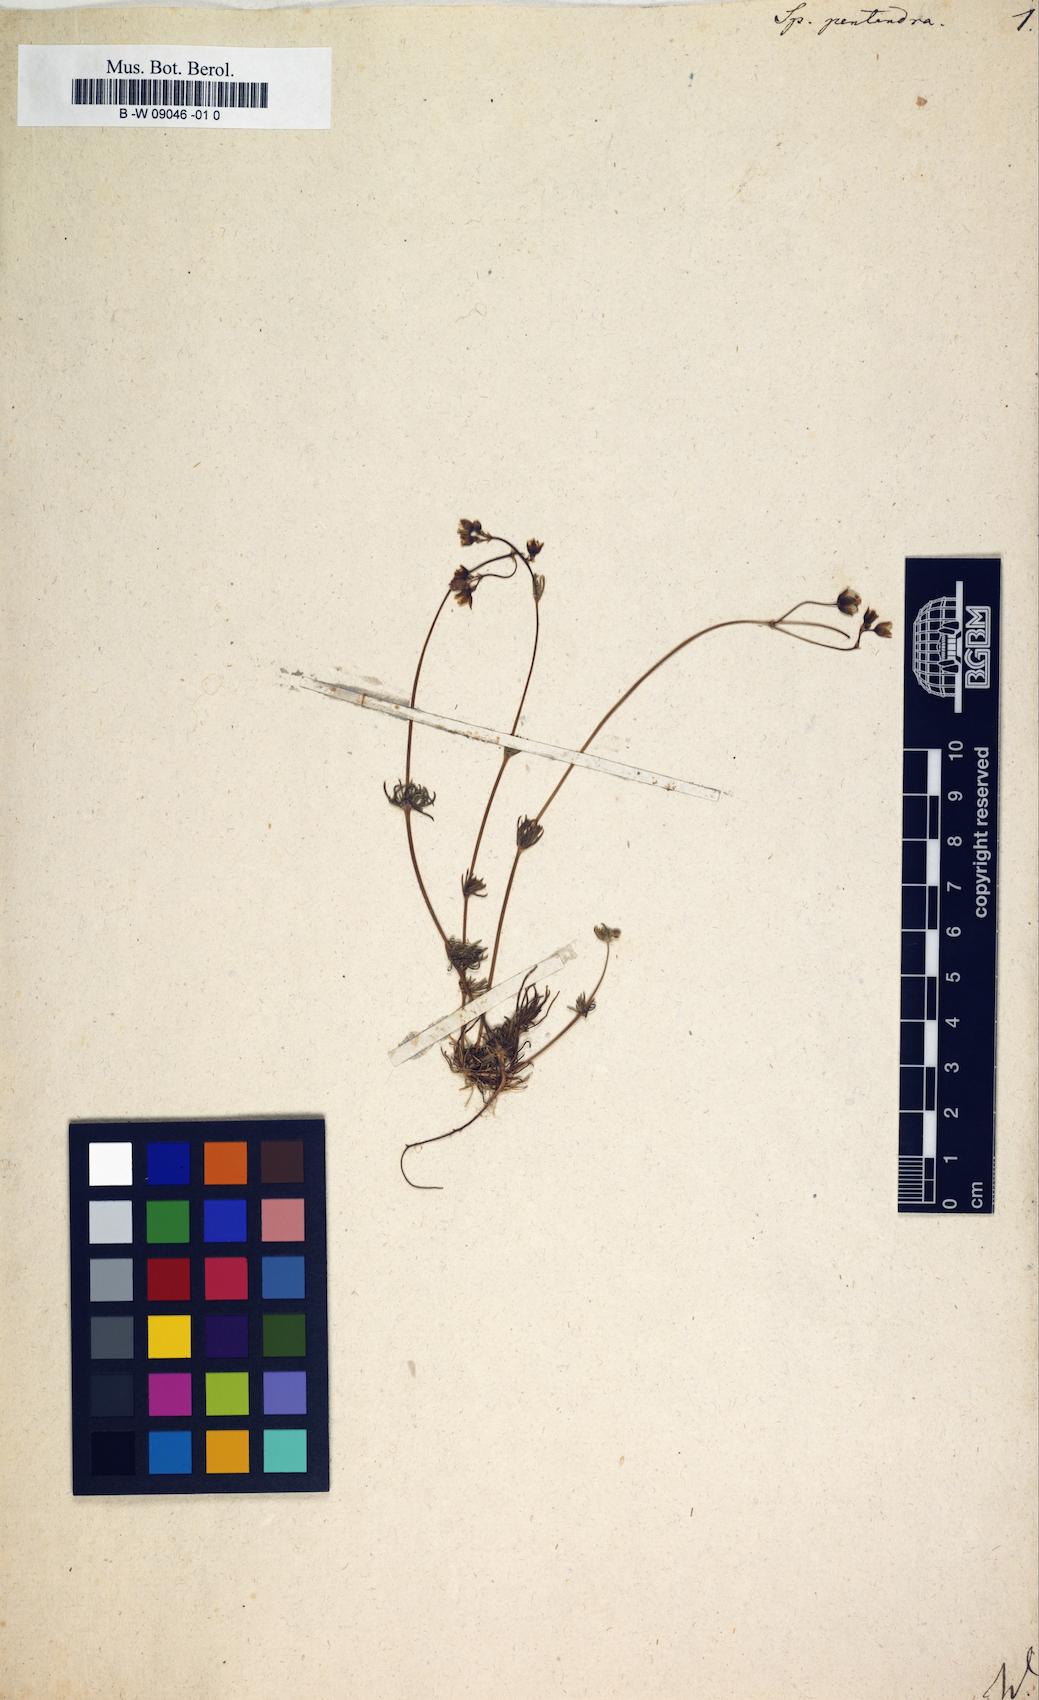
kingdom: Plantae
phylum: Tracheophyta
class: Magnoliopsida
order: Caryophyllales
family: Caryophyllaceae
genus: Spergula
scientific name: Spergula pentandra
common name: Wingstem spurry
